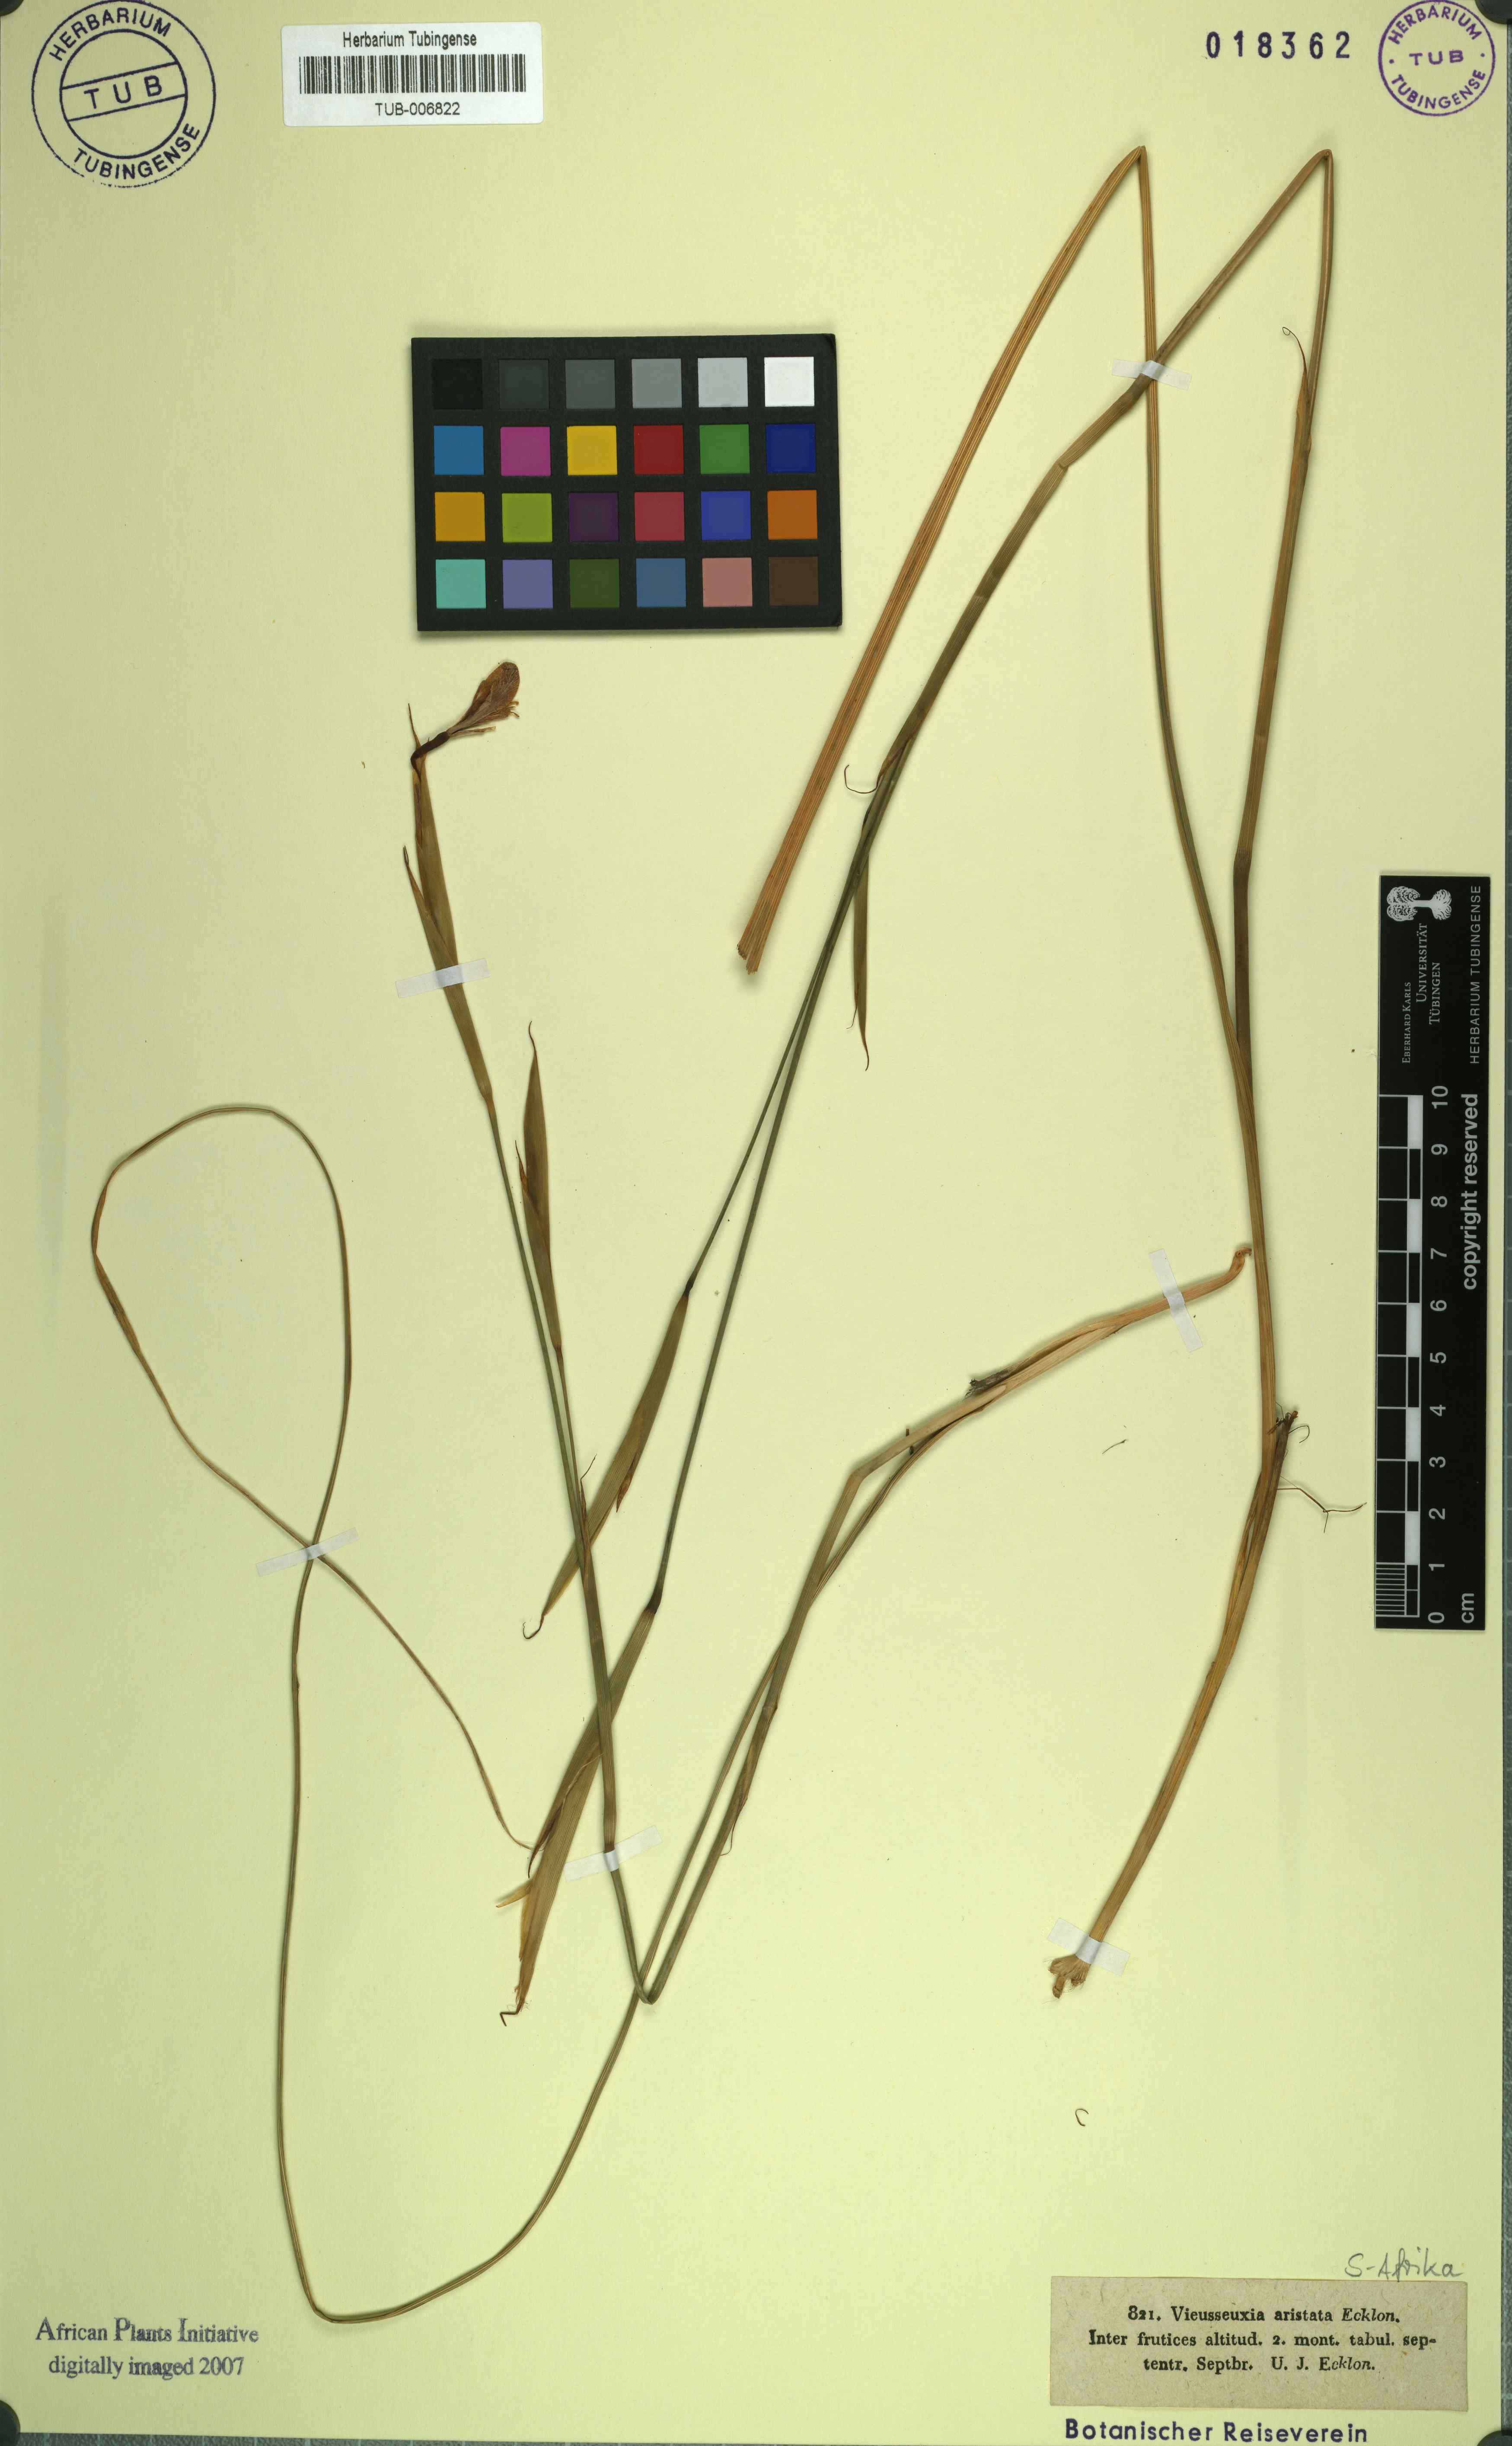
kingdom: Plantae
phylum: Tracheophyta
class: Liliopsida
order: Asparagales
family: Iridaceae
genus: Moraea
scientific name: Moraea fugax
